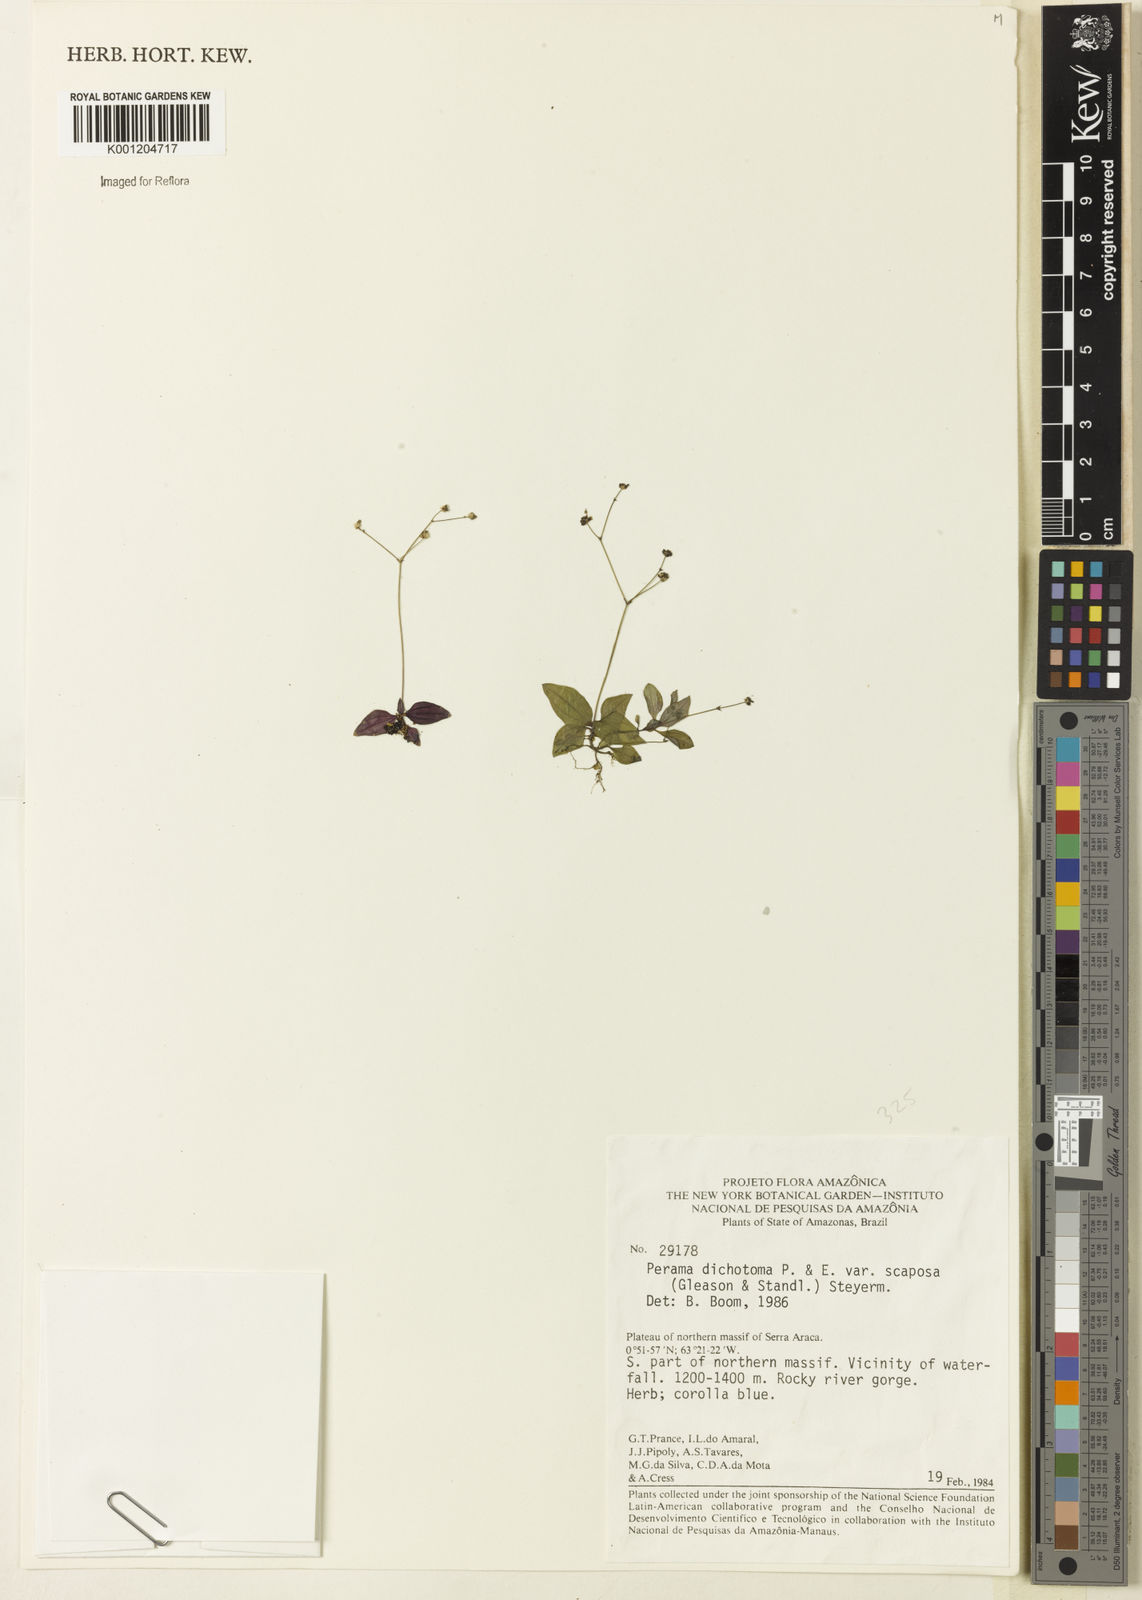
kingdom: Plantae
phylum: Tracheophyta
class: Magnoliopsida
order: Gentianales
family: Rubiaceae
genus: Perama
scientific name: Perama dichotoma
